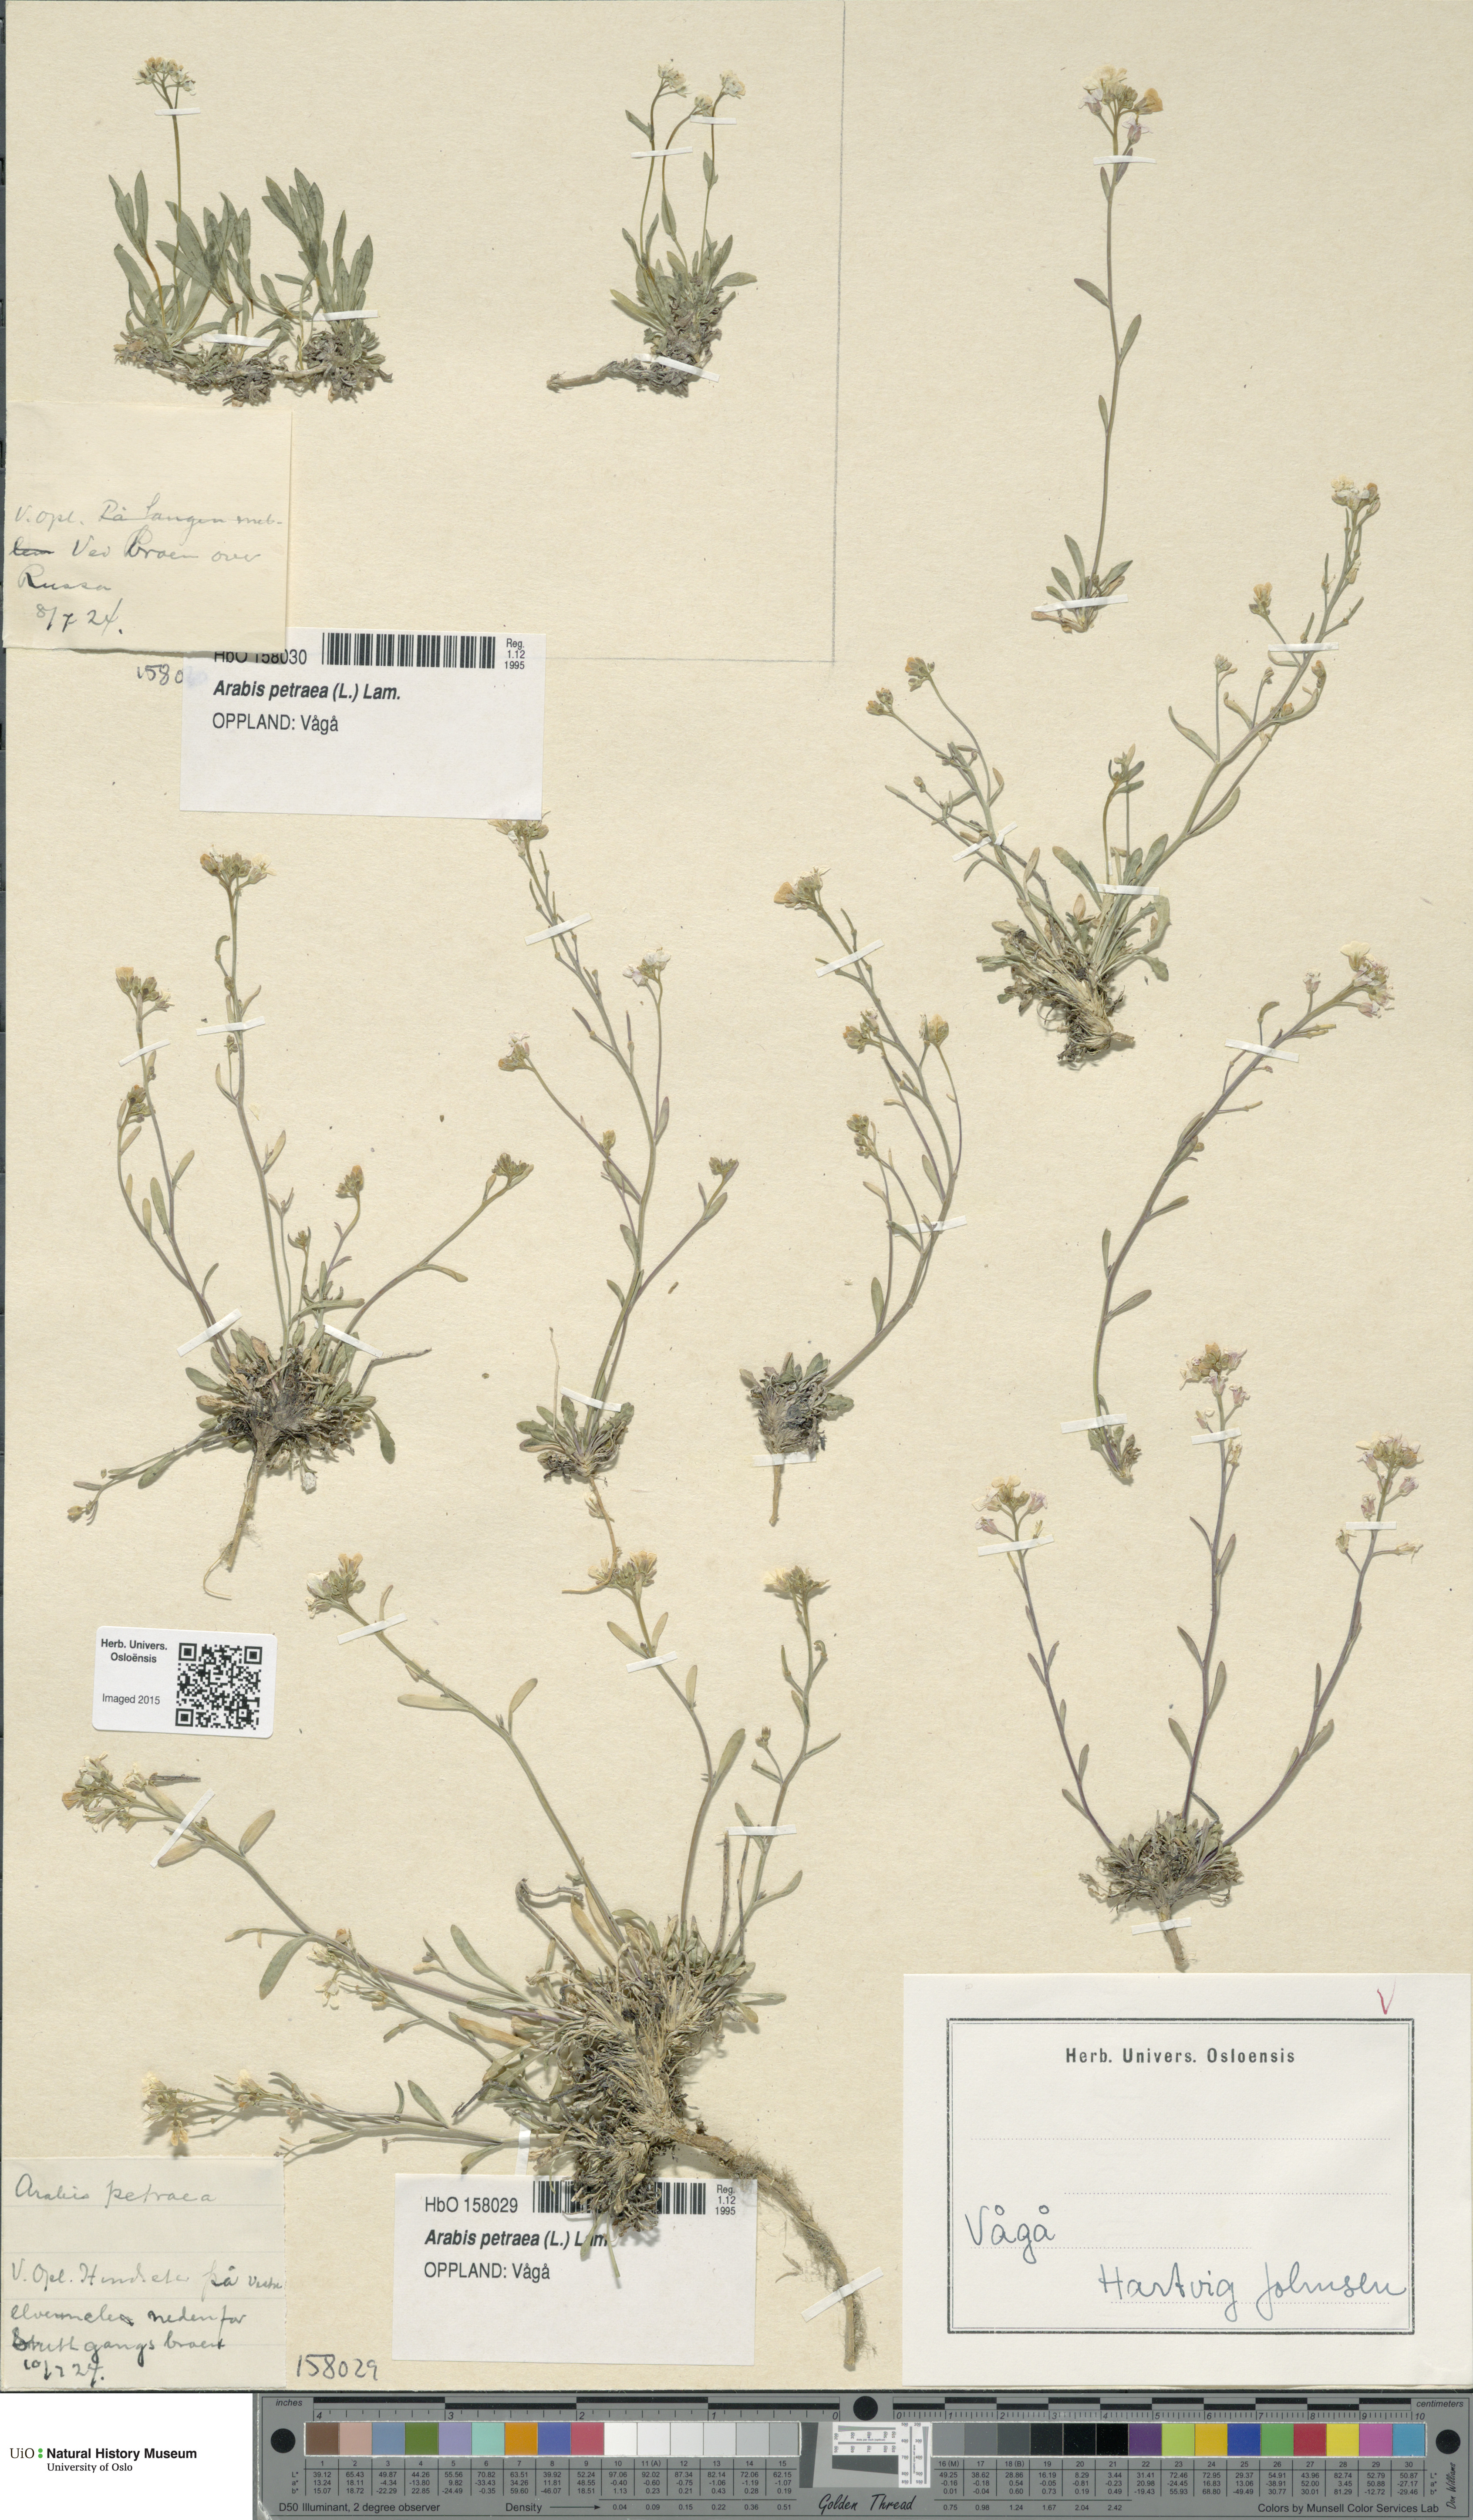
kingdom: Plantae
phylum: Tracheophyta
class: Magnoliopsida
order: Brassicales
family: Brassicaceae
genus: Arabidopsis
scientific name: Arabidopsis petraea
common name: Northern rock-cress
